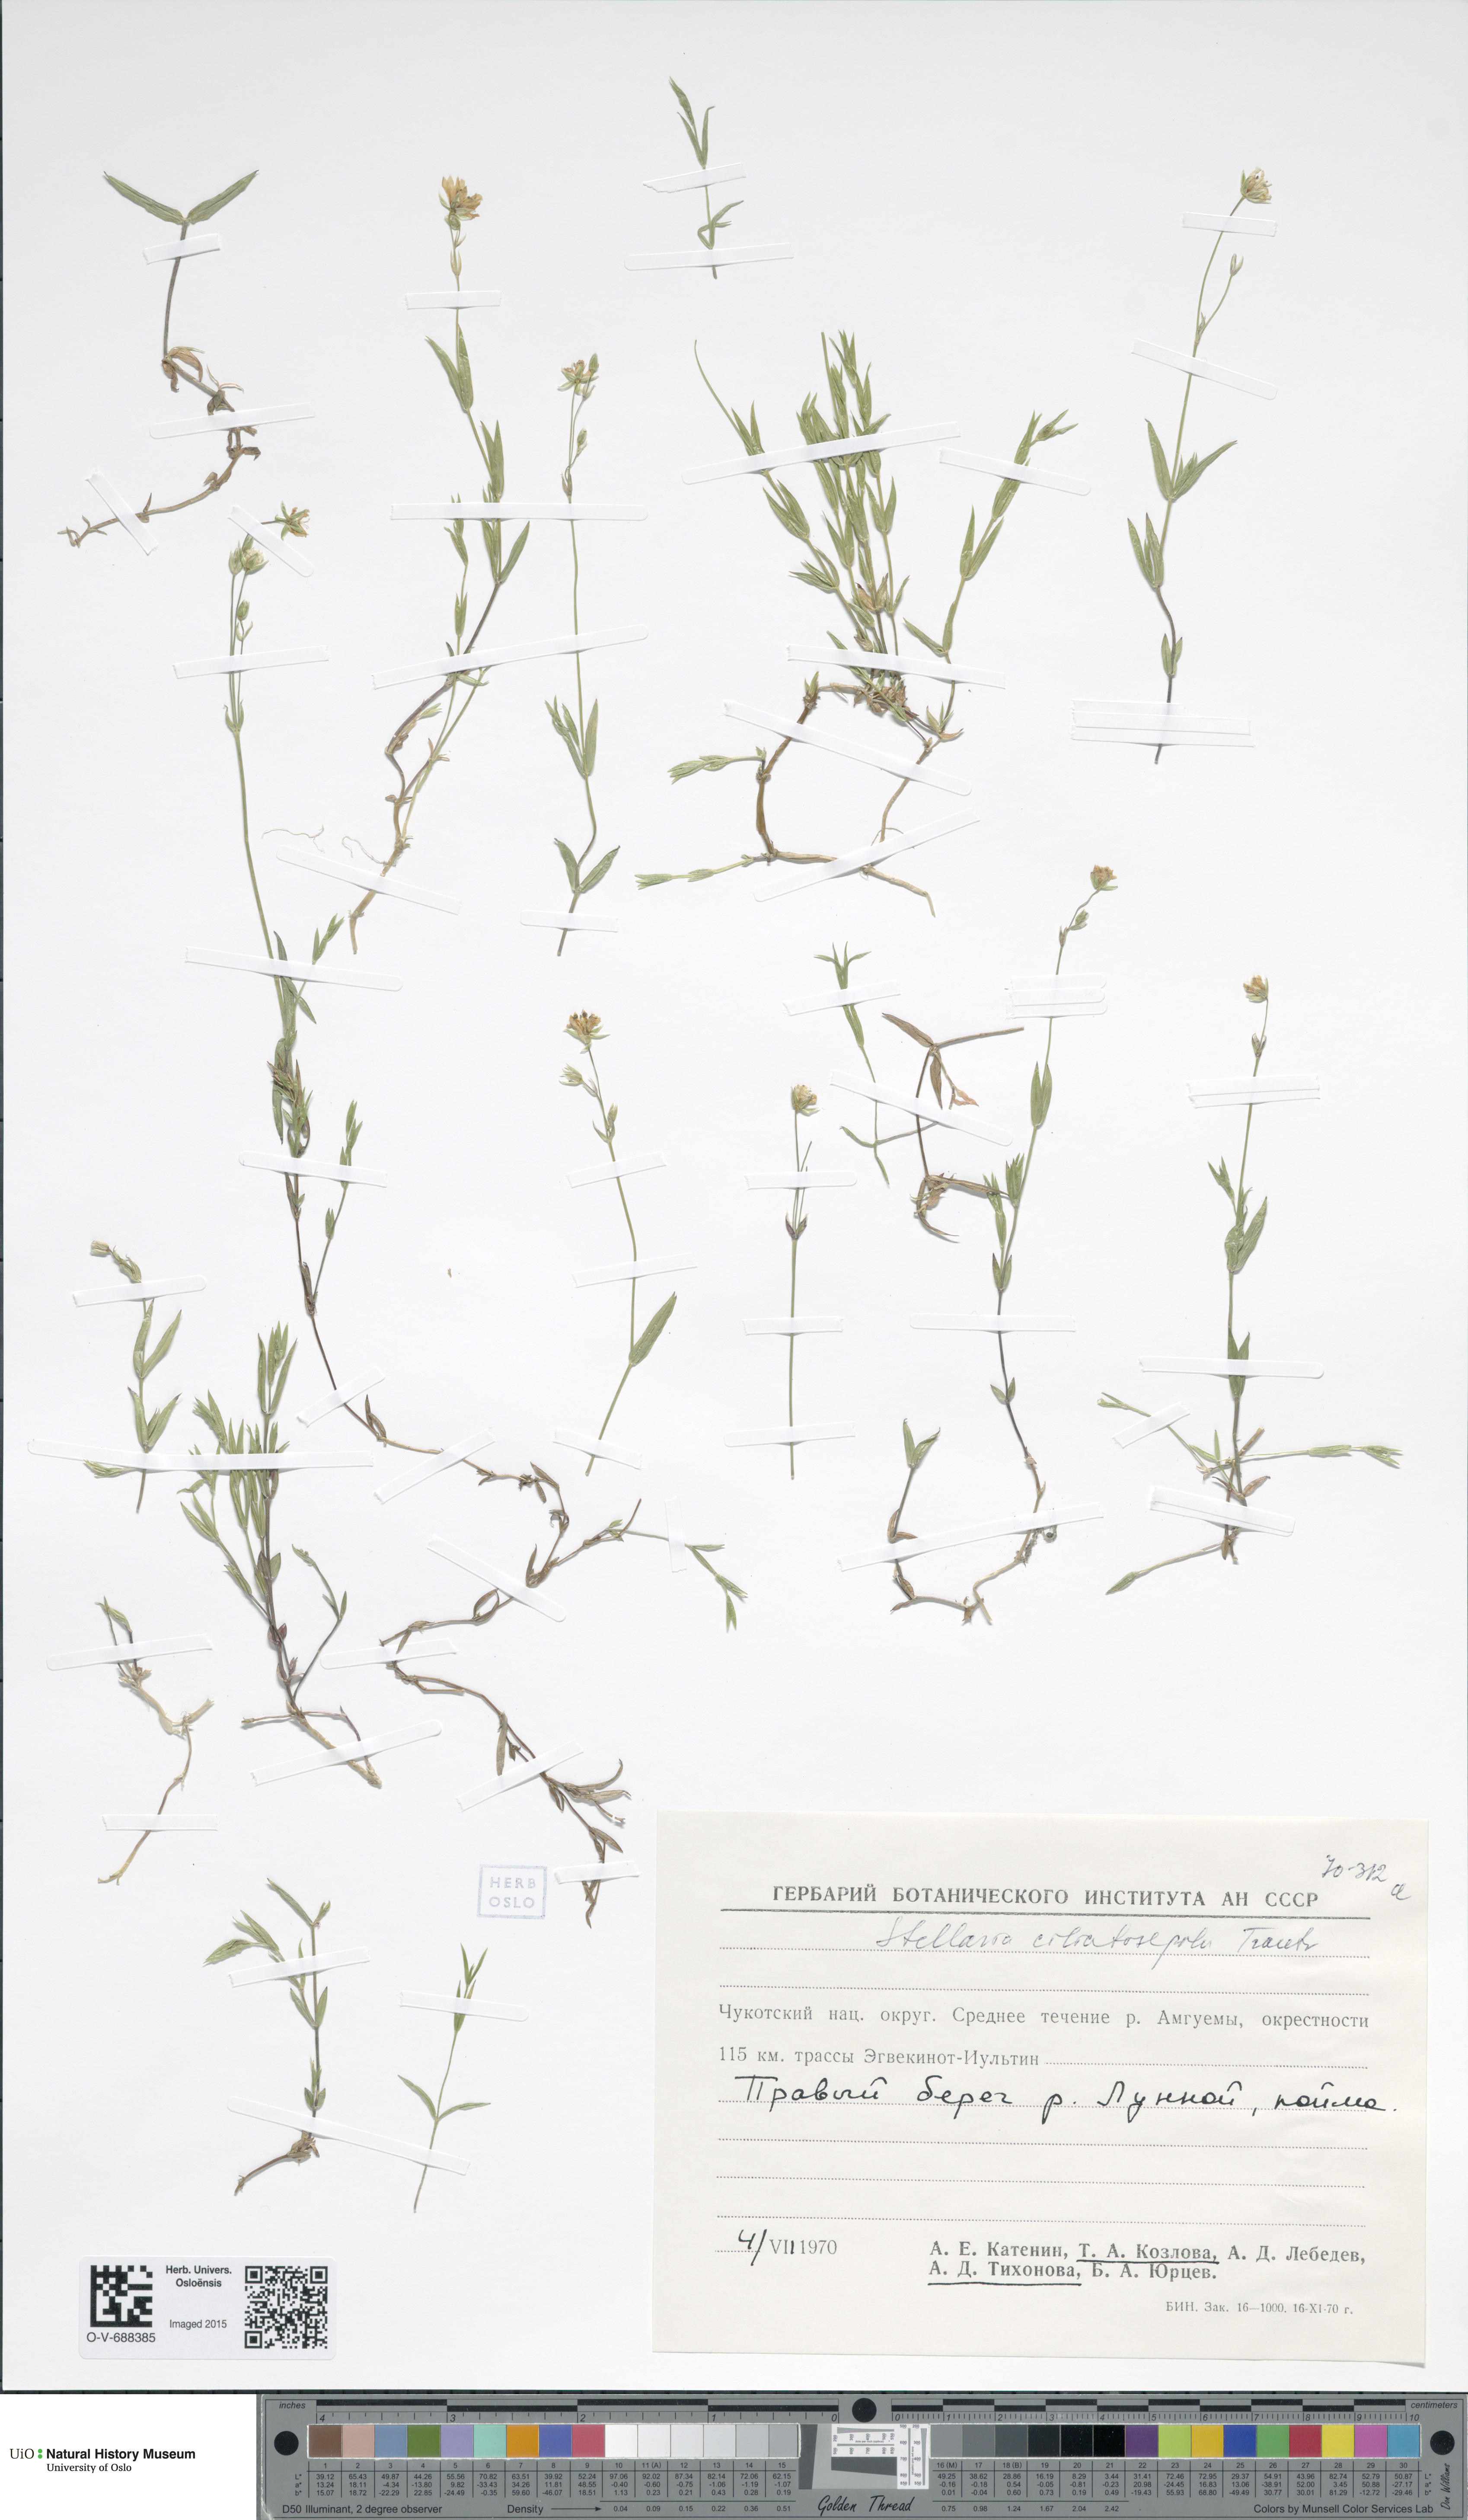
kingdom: Plantae
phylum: Tracheophyta
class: Magnoliopsida
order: Caryophyllales
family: Caryophyllaceae
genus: Stellaria
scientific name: Stellaria longipes
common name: Goldie's starwort
